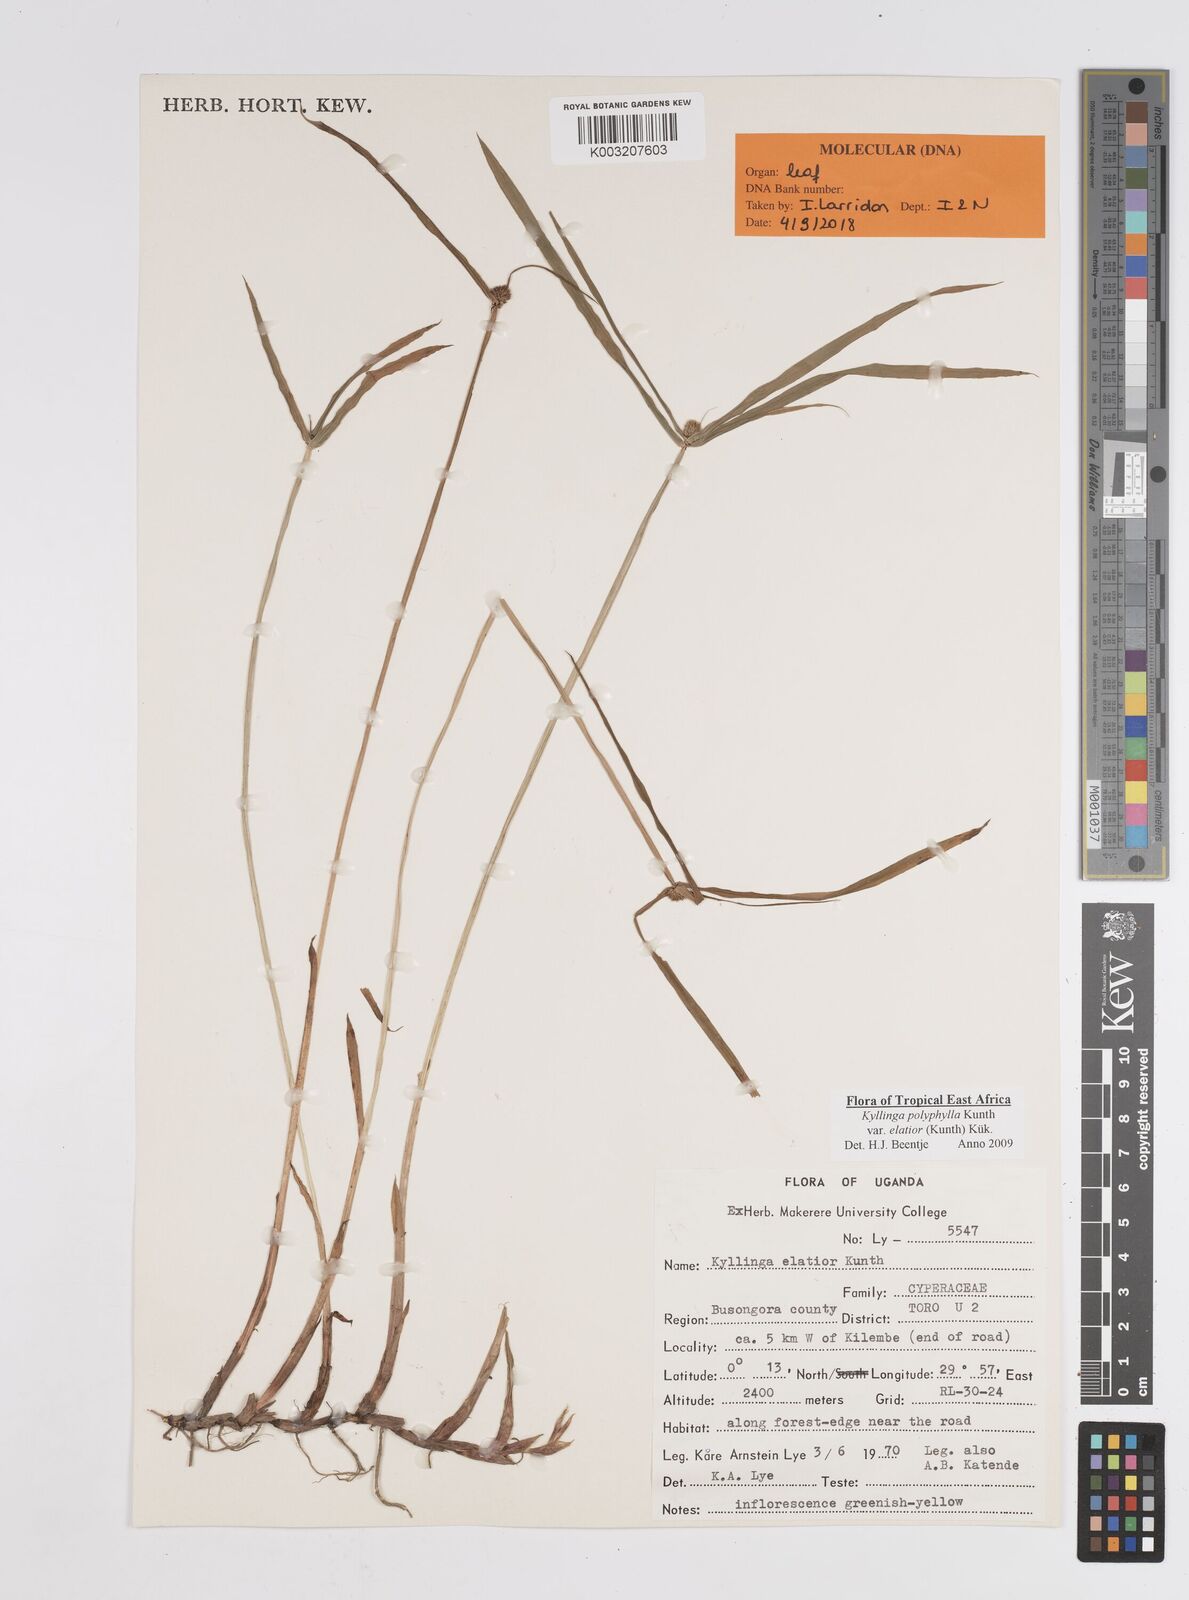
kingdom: Plantae
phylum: Tracheophyta
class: Liliopsida
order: Poales
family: Cyperaceae
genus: Cyperus
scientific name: Cyperus
